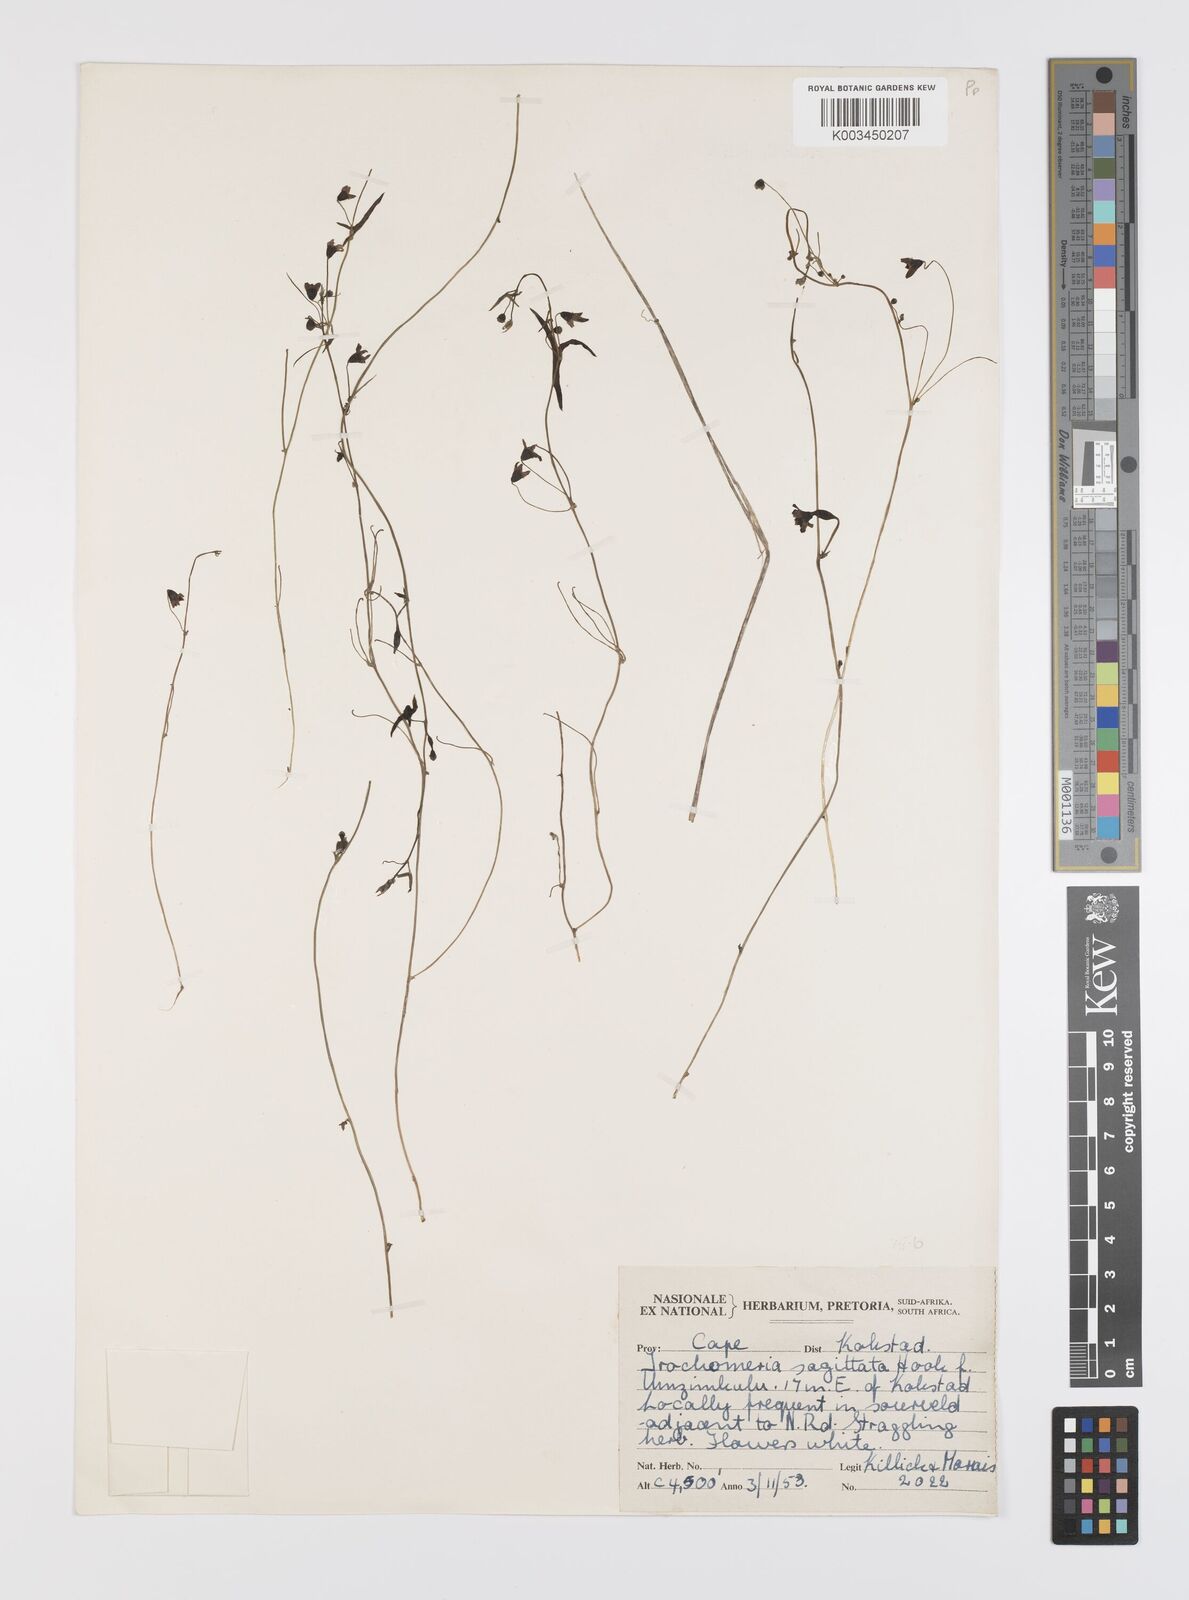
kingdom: Plantae
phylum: Tracheophyta
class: Magnoliopsida
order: Cucurbitales
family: Cucurbitaceae
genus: Trochomeria
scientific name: Trochomeria sagittata
